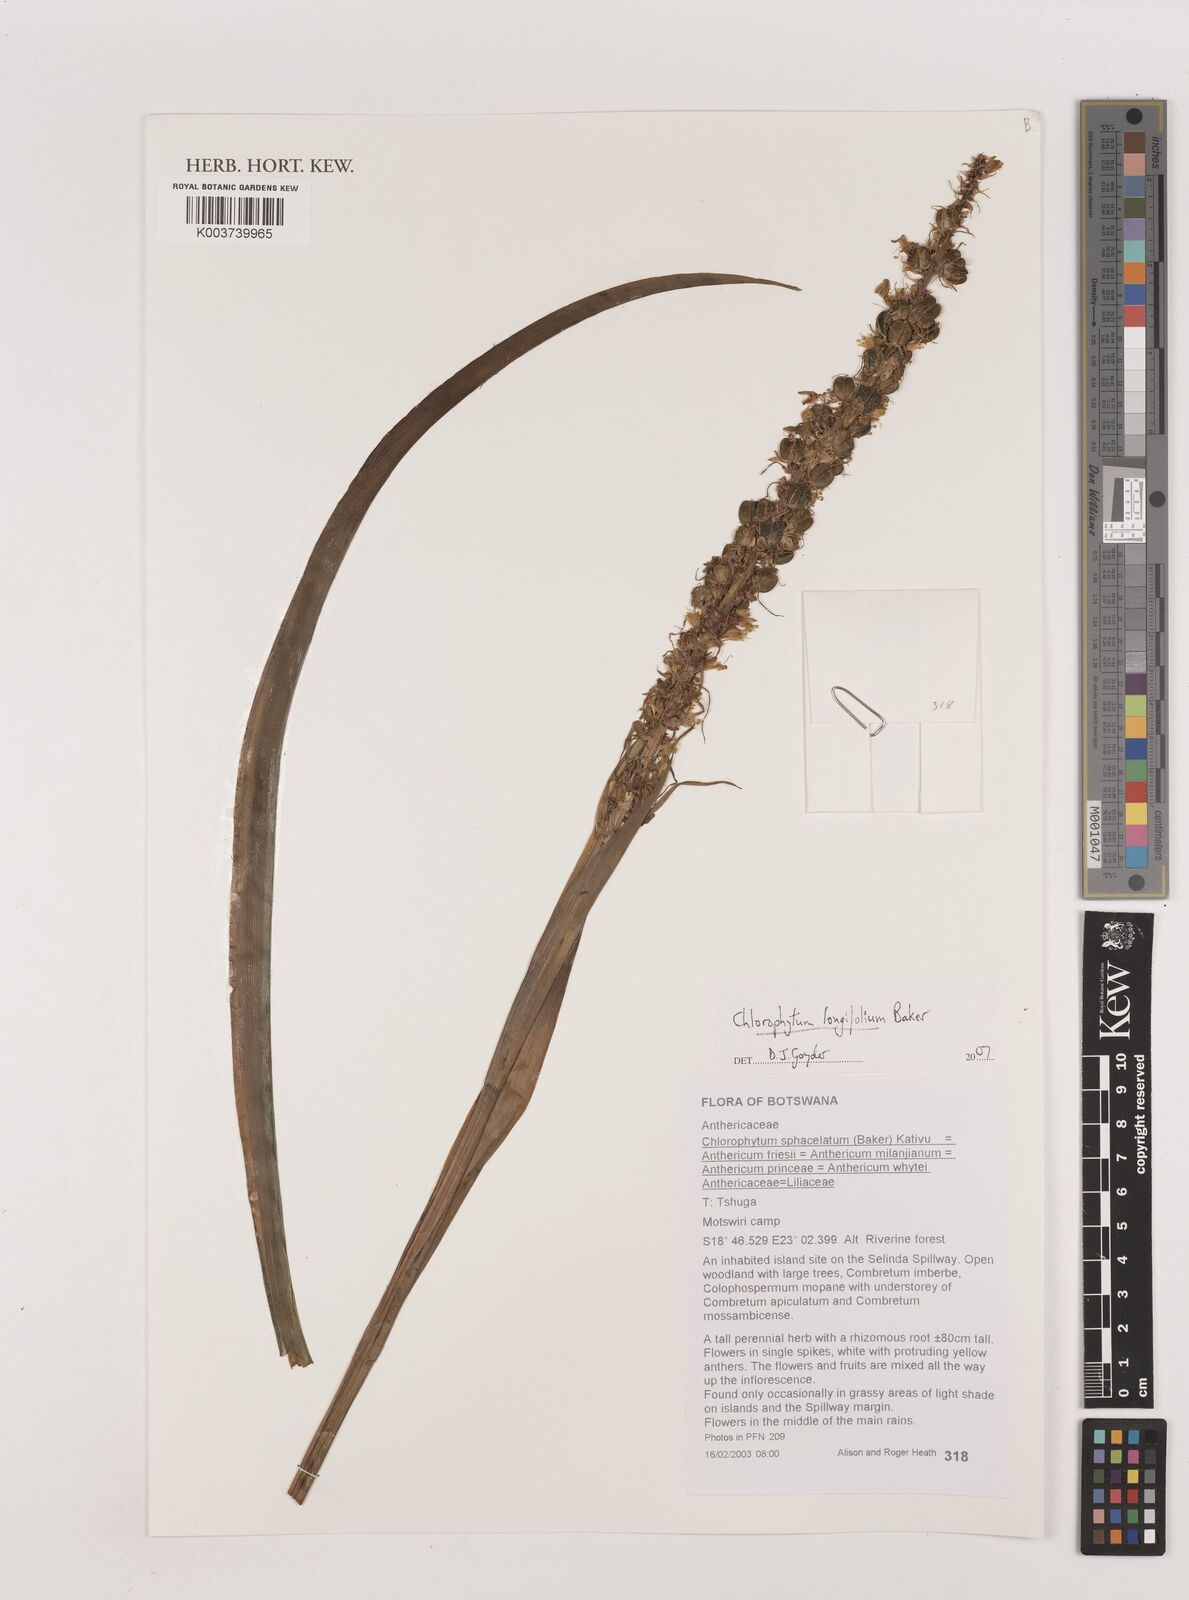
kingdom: Plantae
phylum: Tracheophyta
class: Liliopsida
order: Asparagales
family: Asparagaceae
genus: Chlorophytum
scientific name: Chlorophytum longifolium
